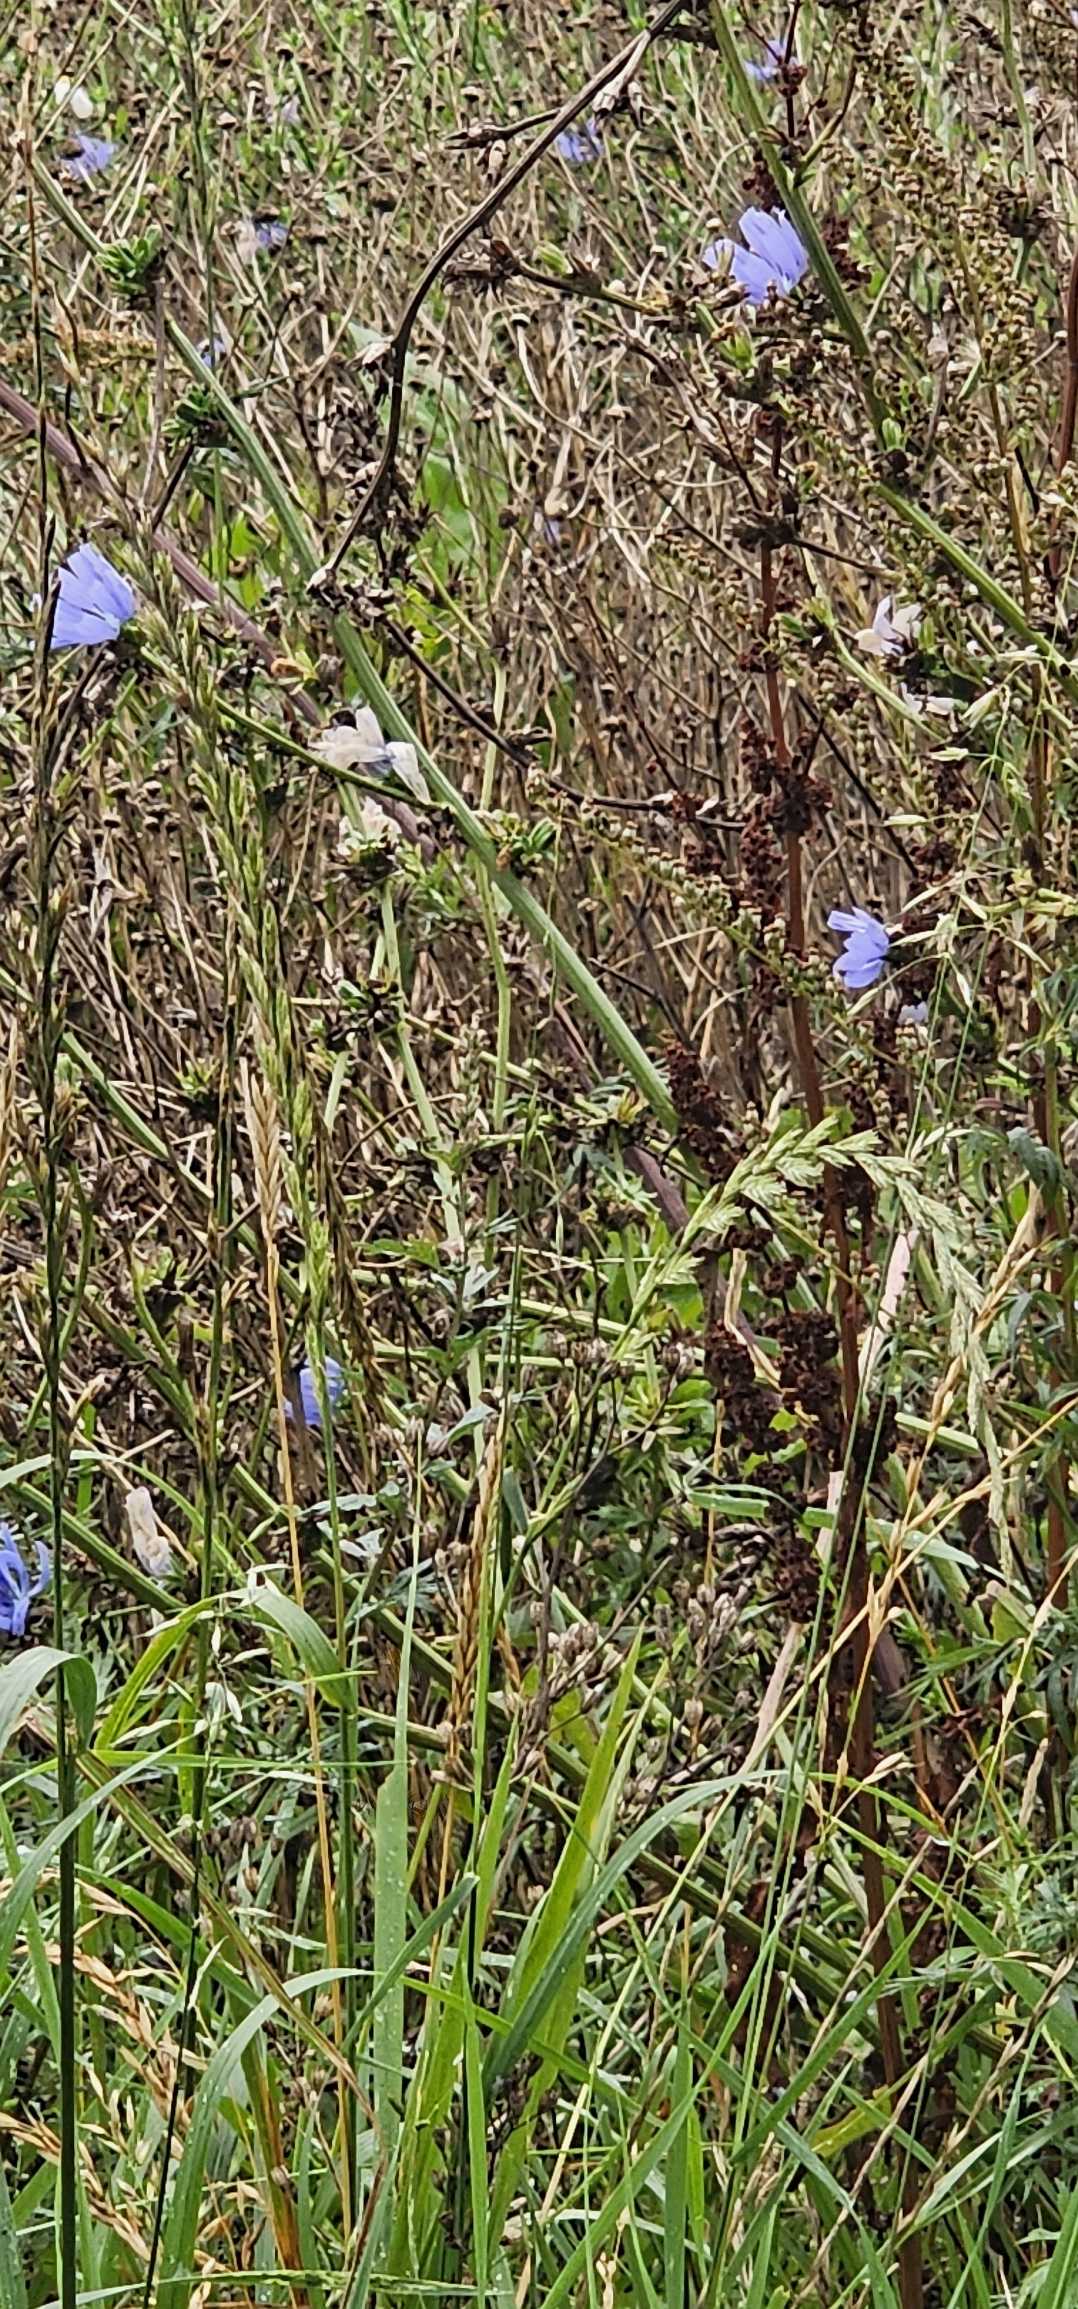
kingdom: Plantae
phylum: Tracheophyta
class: Magnoliopsida
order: Asterales
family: Asteraceae
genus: Cichorium
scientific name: Cichorium intybus
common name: Cikorie
